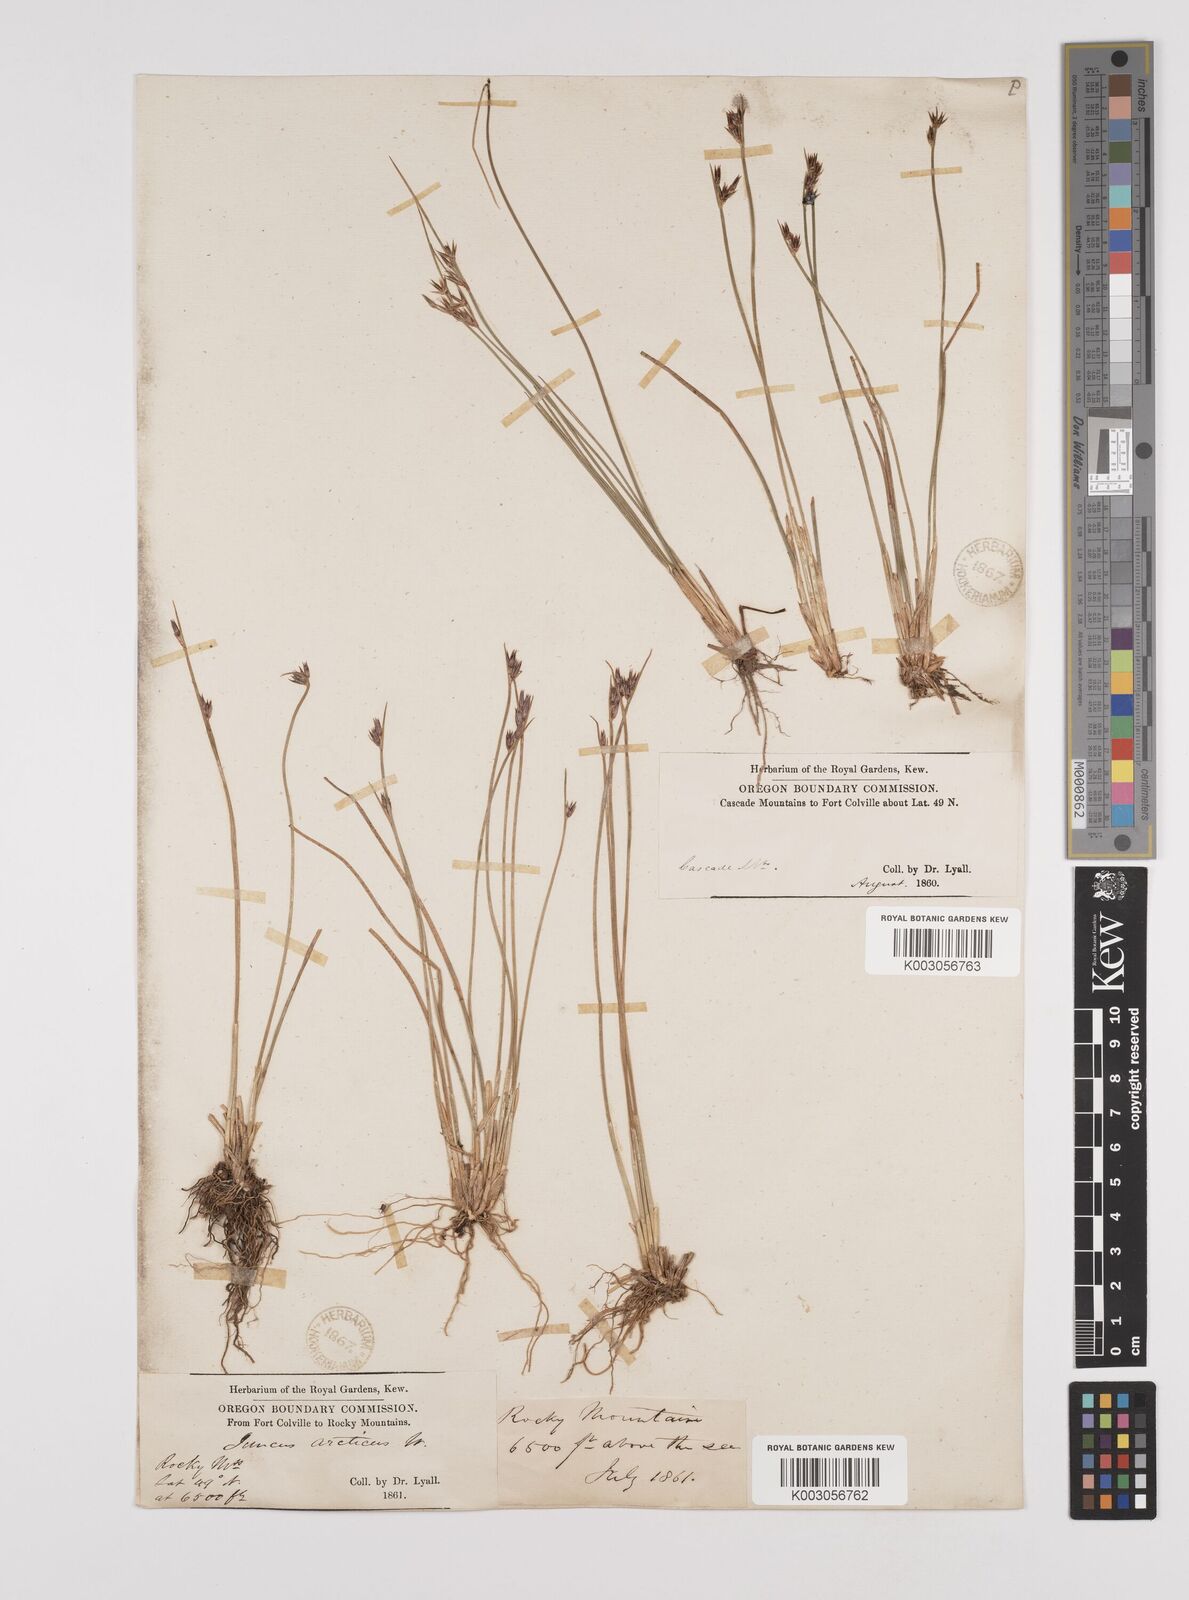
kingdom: Plantae
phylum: Tracheophyta
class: Liliopsida
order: Poales
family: Juncaceae
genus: Juncus
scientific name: Juncus drummondii
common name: Drummond's rush
